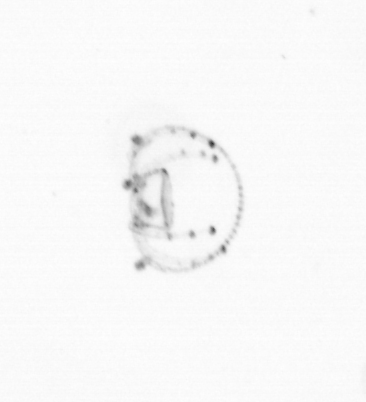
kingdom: Chromista
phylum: Ochrophyta
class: Bacillariophyceae
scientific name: Bacillariophyceae
